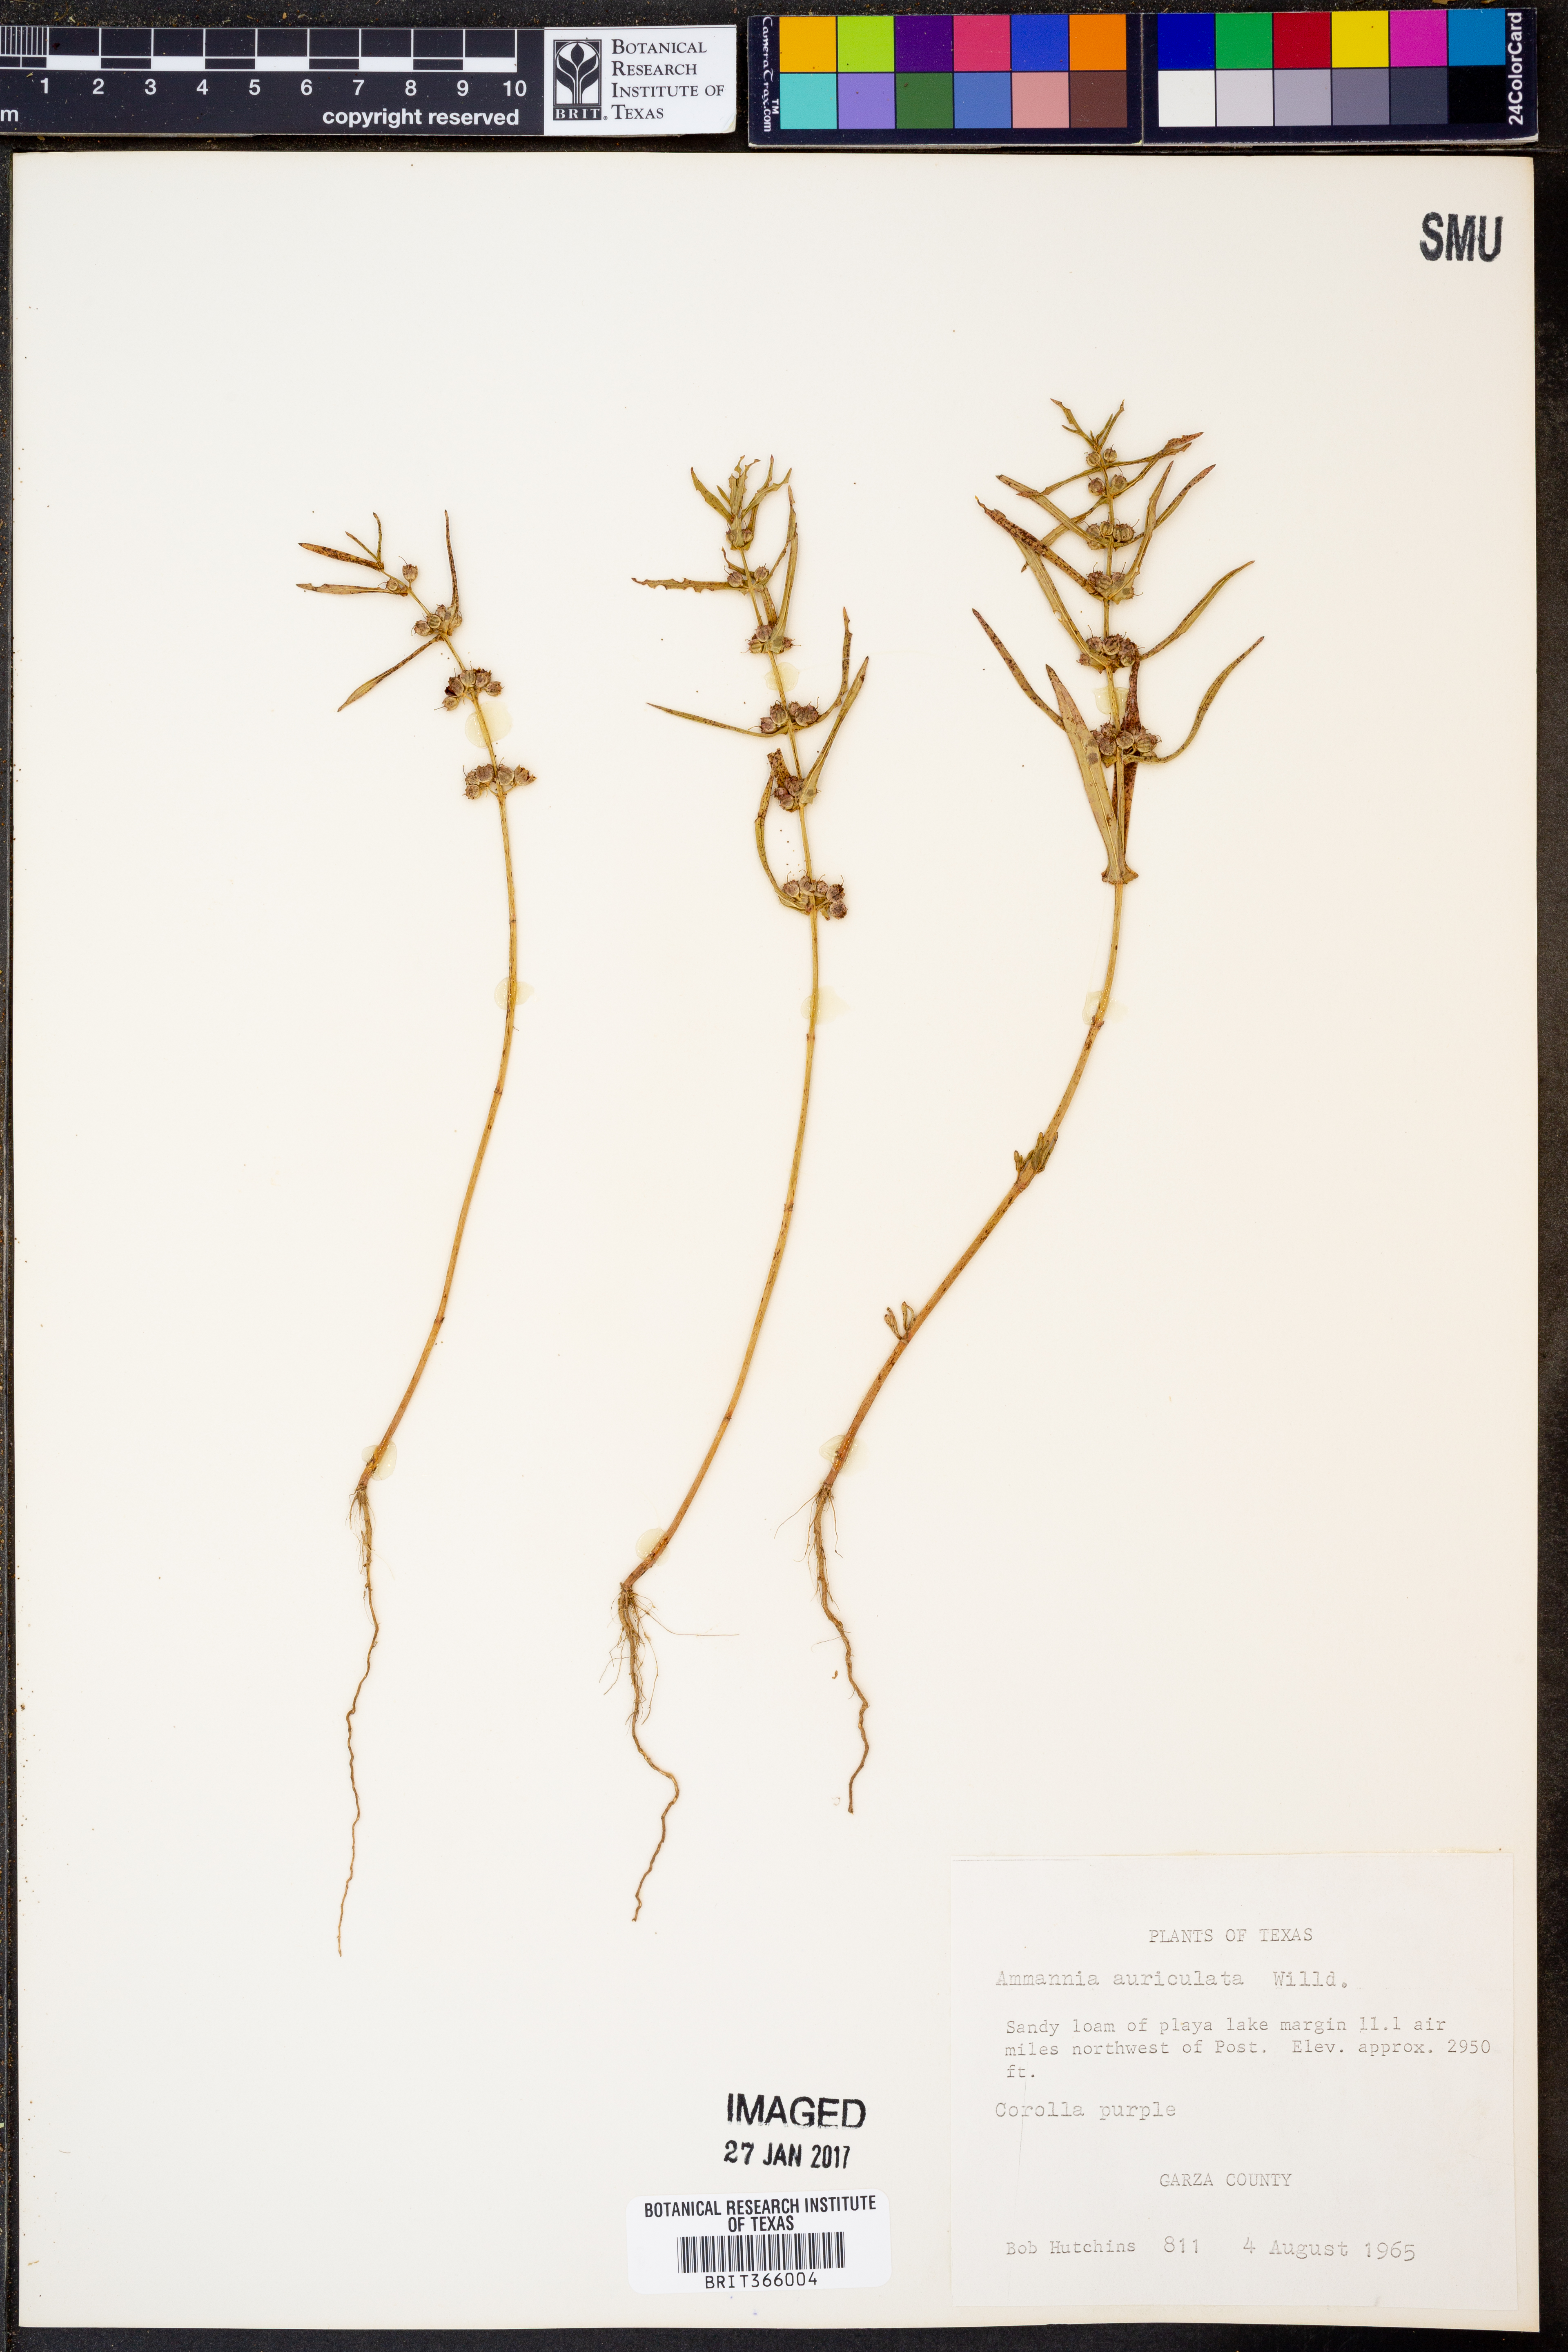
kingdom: Plantae
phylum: Tracheophyta
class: Magnoliopsida
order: Myrtales
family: Lythraceae
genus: Ammannia
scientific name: Ammannia auriculata
